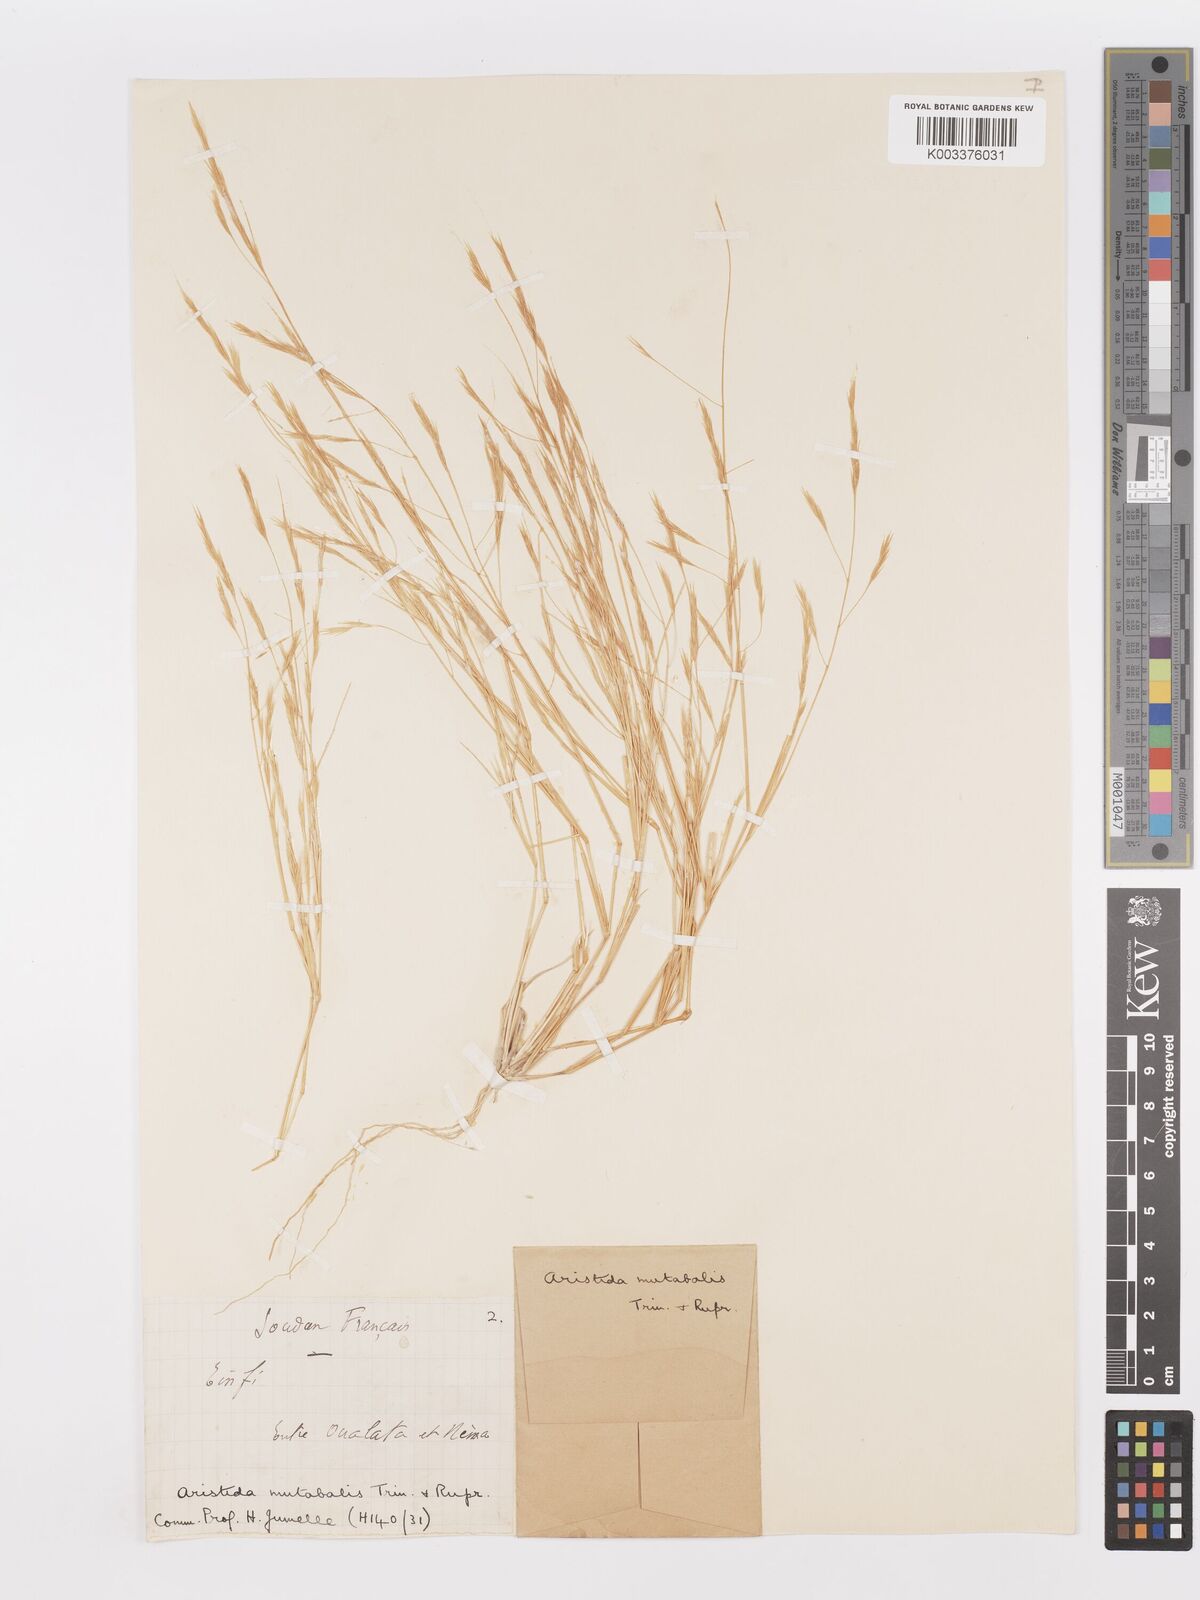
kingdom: Plantae
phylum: Tracheophyta
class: Liliopsida
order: Poales
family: Poaceae
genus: Aristida
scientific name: Aristida mutabilis
